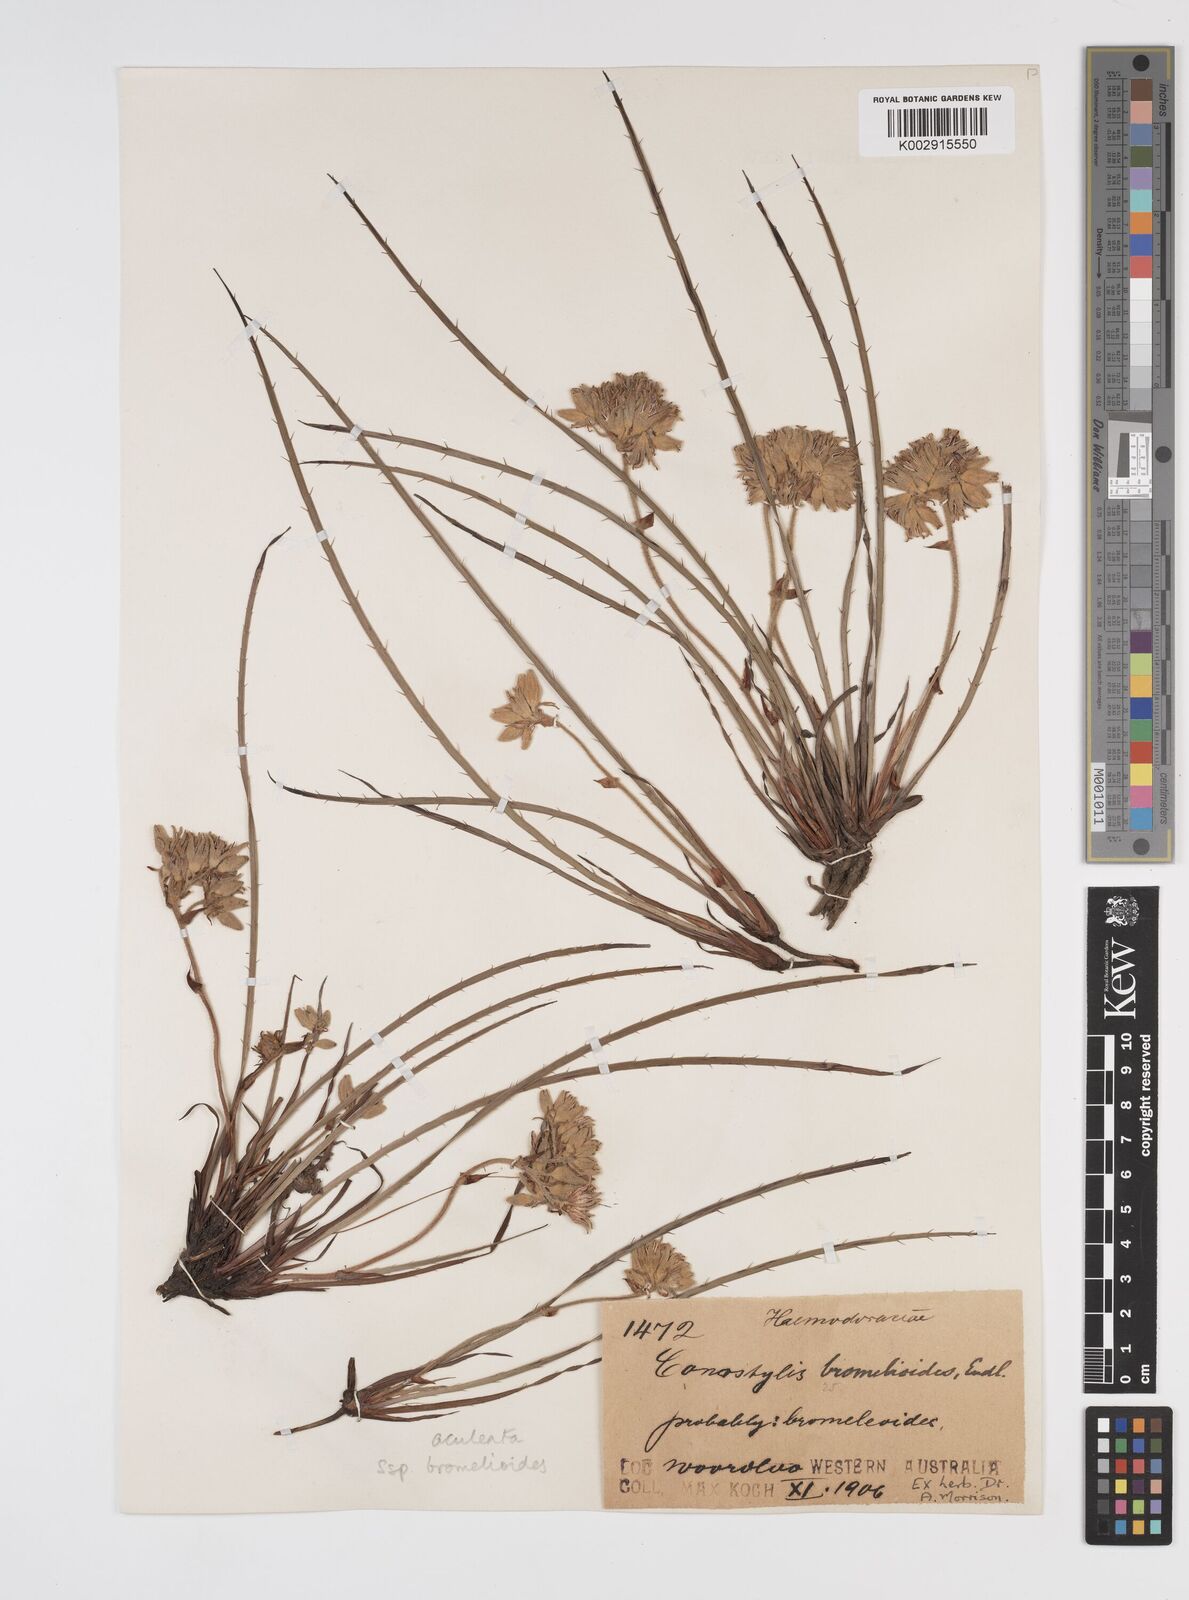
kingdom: Plantae
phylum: Tracheophyta
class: Liliopsida
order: Commelinales
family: Haemodoraceae
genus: Conostylis
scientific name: Conostylis aculeata
